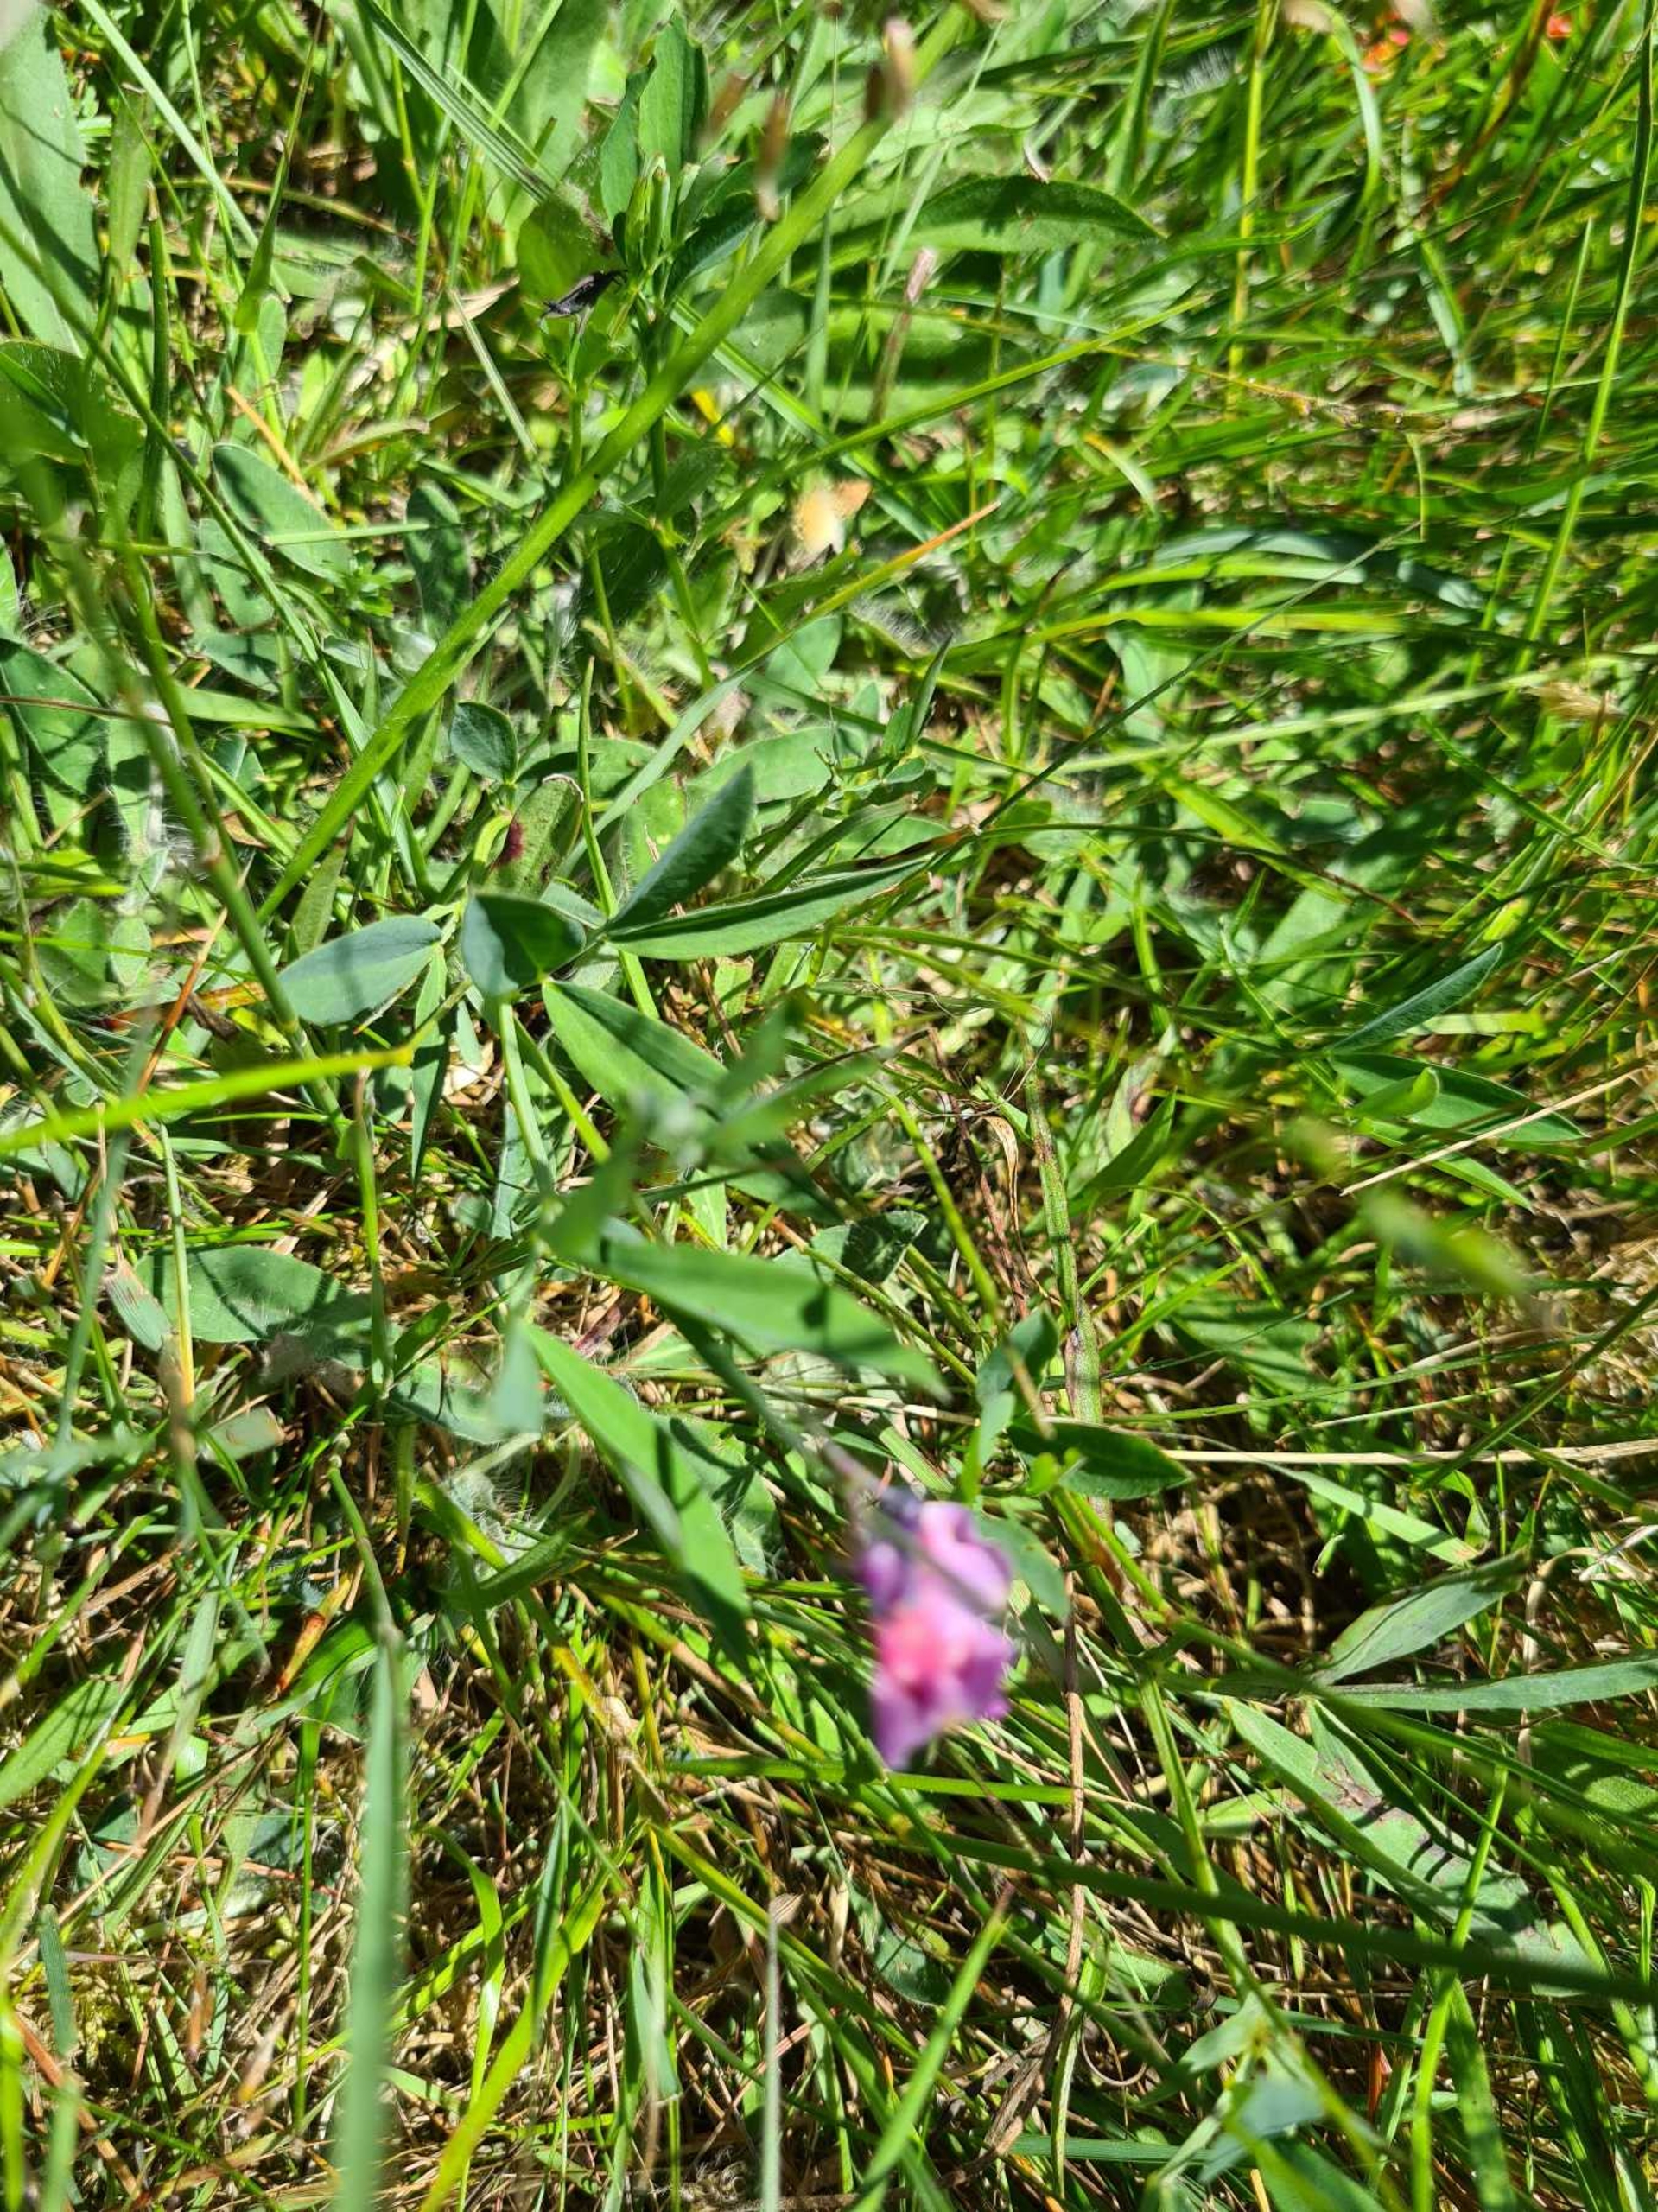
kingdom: Plantae
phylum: Tracheophyta
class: Magnoliopsida
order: Fabales
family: Fabaceae
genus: Lathyrus
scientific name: Lathyrus linifolius
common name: Krat-fladbælg
